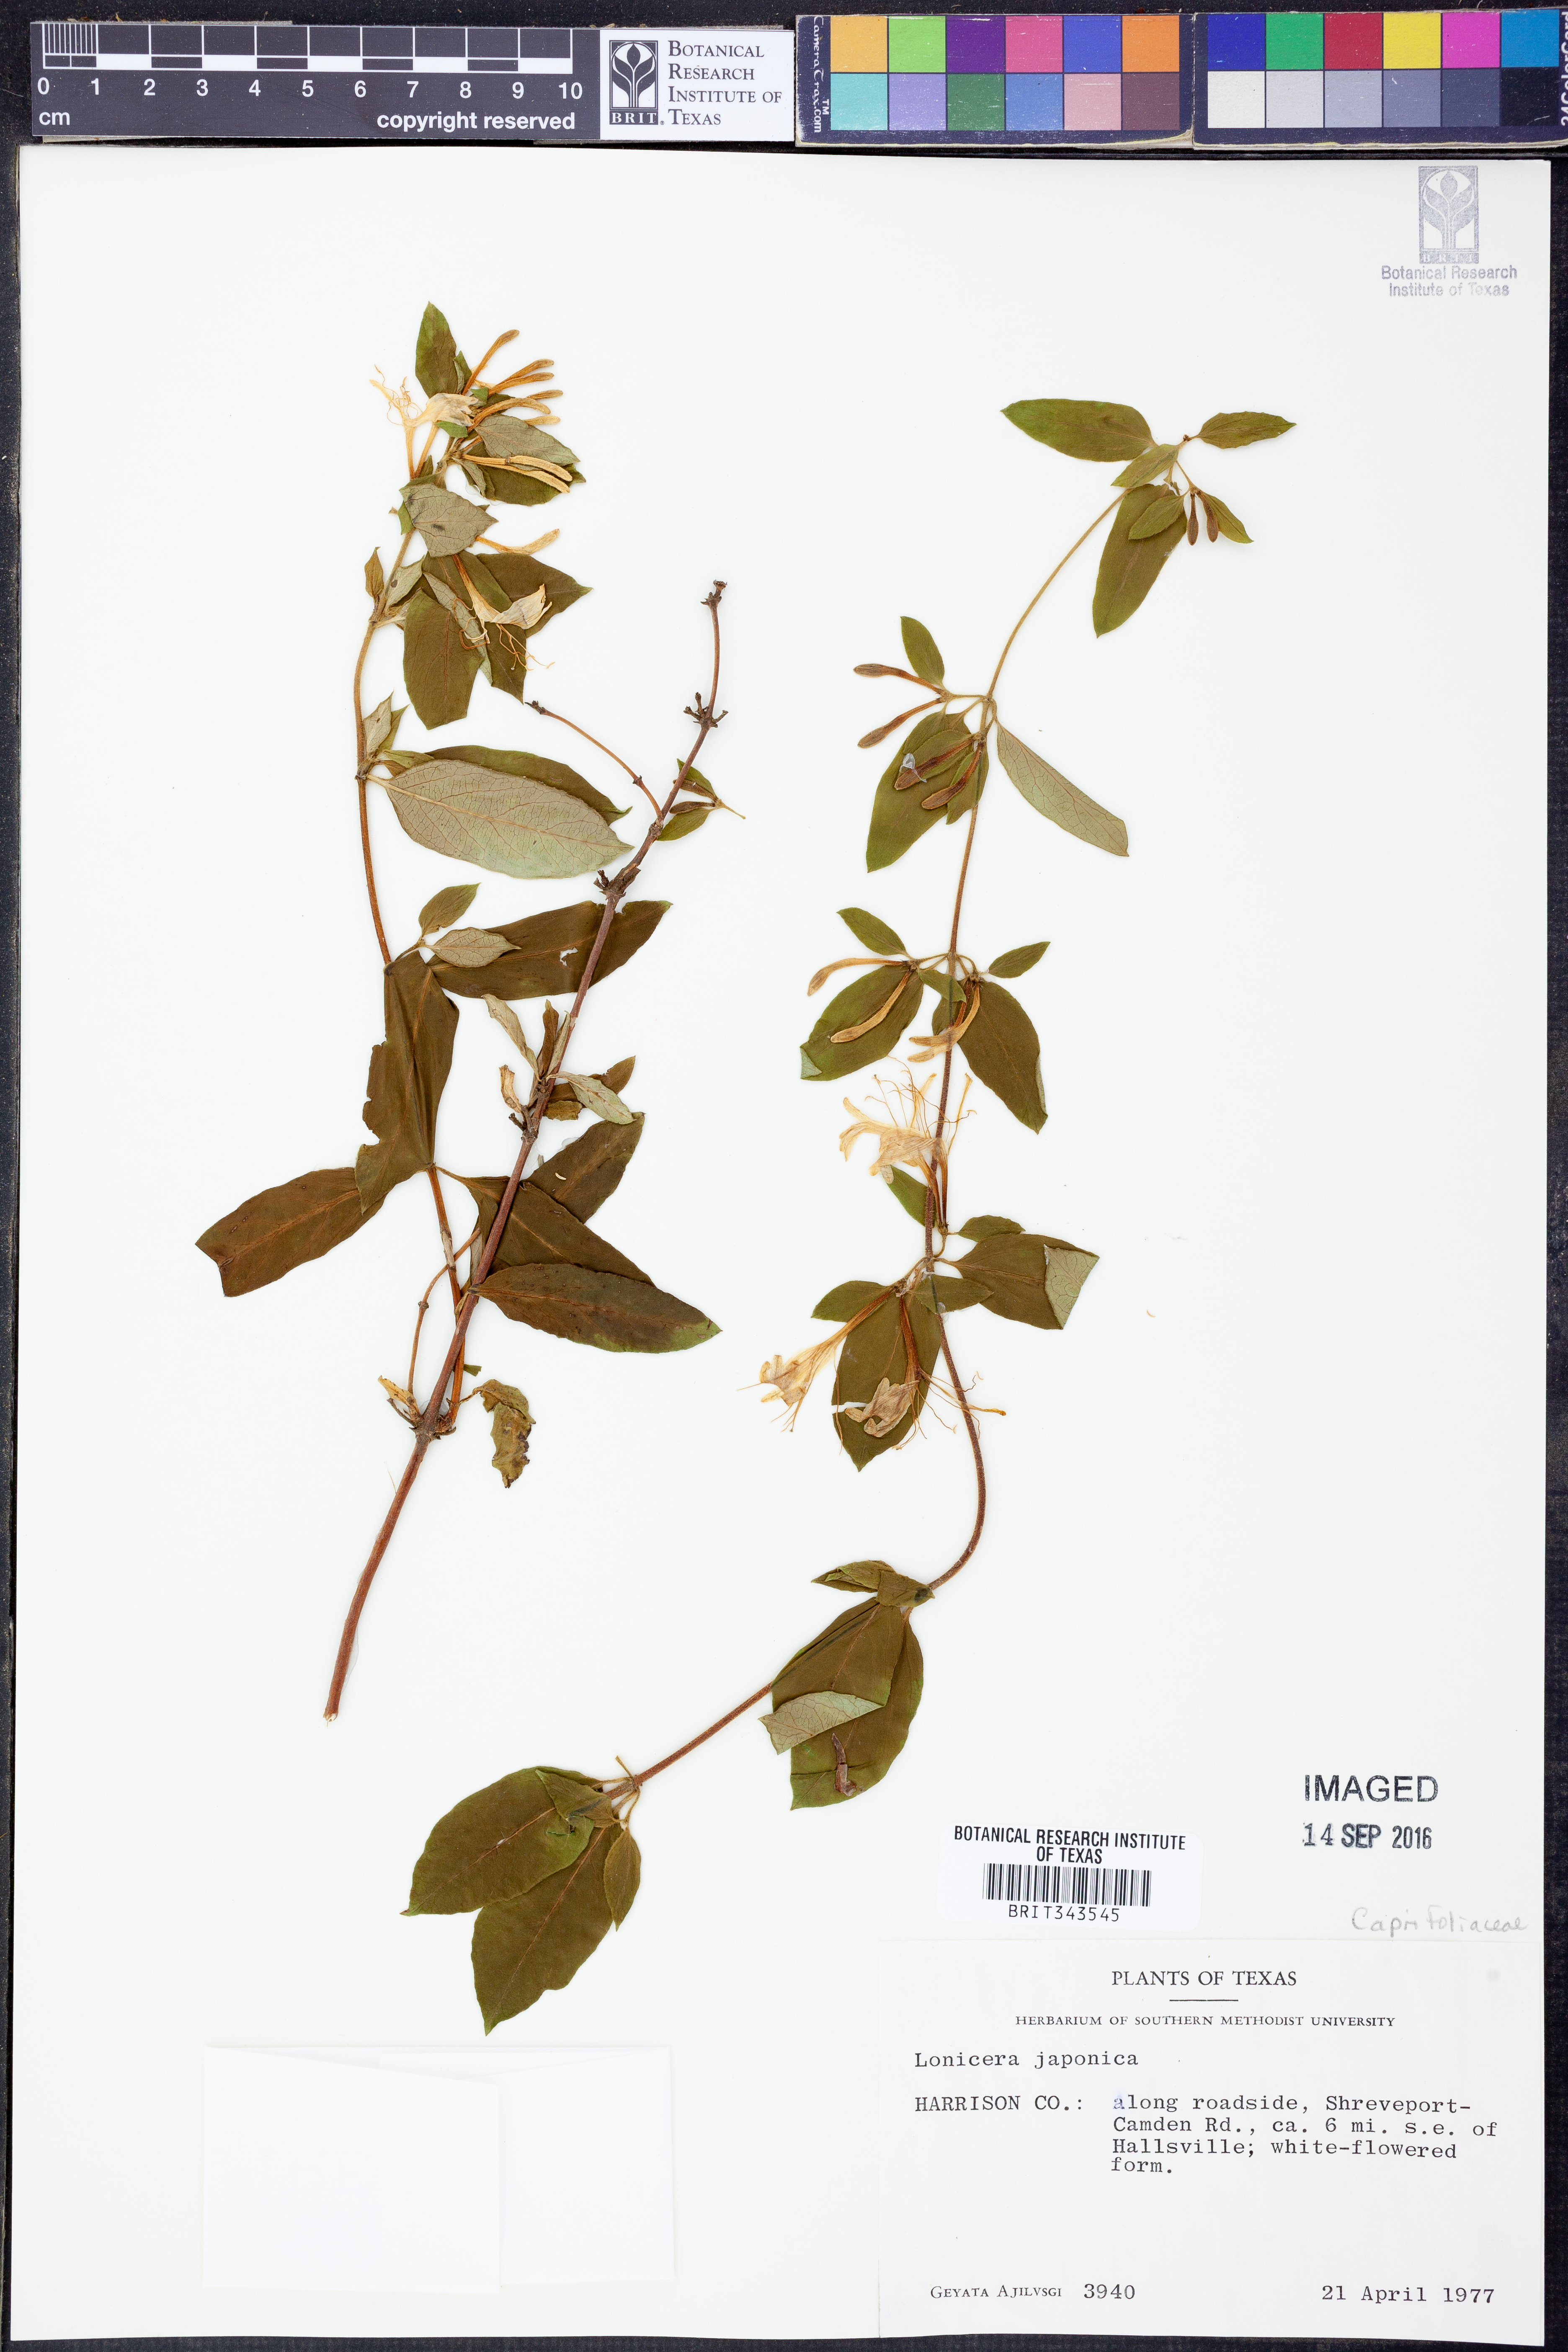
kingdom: Plantae
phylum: Tracheophyta
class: Magnoliopsida
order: Dipsacales
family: Caprifoliaceae
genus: Lonicera
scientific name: Lonicera japonica
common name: Japanese honeysuckle
